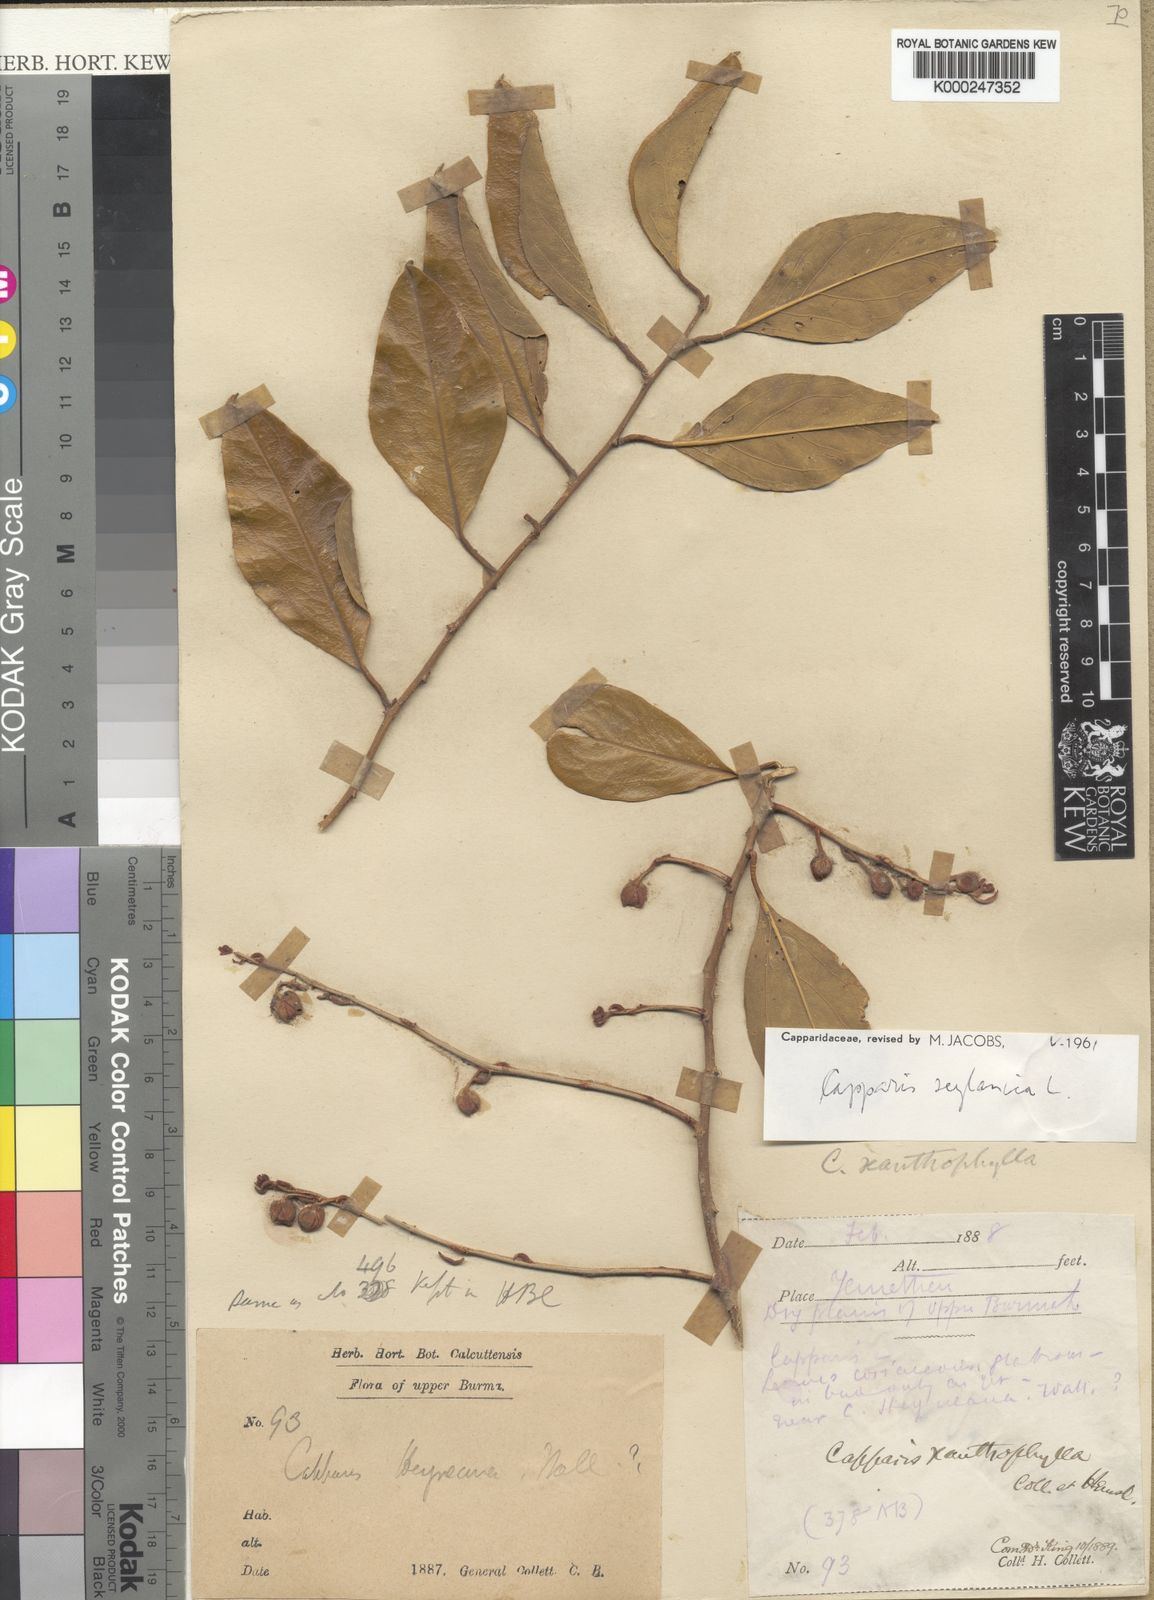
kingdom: Plantae
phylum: Tracheophyta
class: Magnoliopsida
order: Brassicales
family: Capparaceae
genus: Capparis
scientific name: Capparis zeylanica
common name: Ceylon caper
